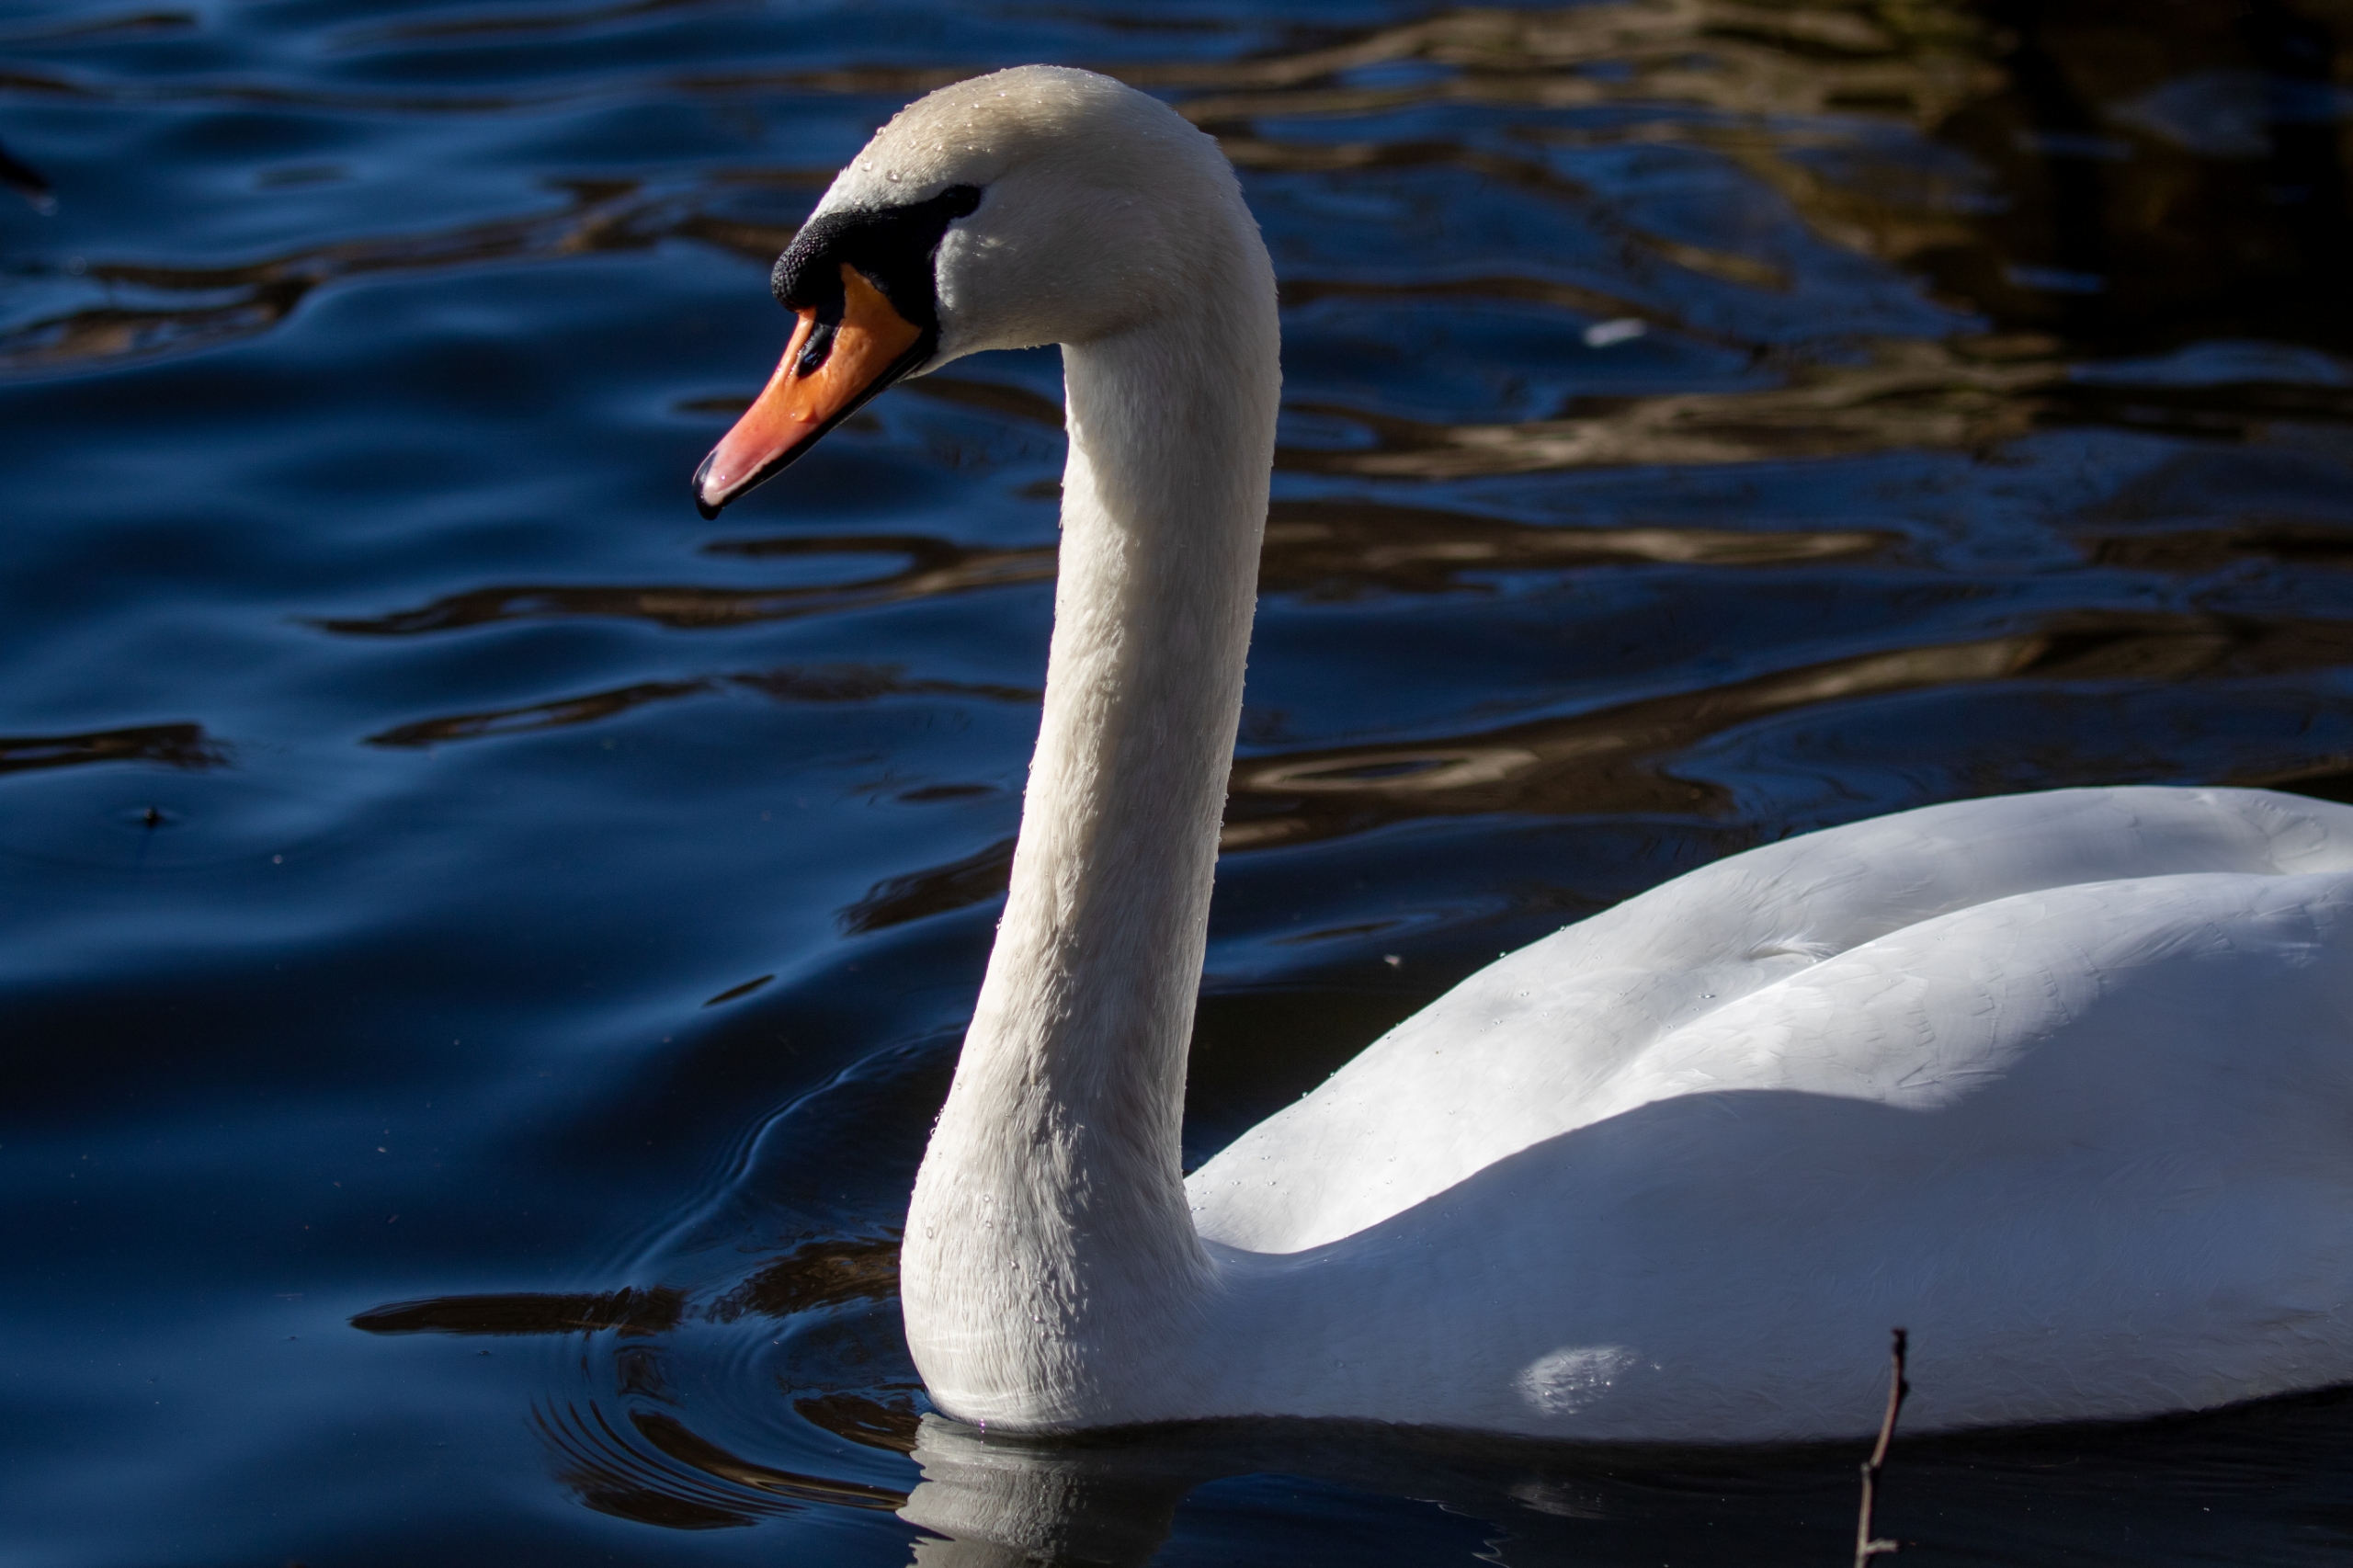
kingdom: Animalia
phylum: Chordata
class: Aves
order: Anseriformes
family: Anatidae
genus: Cygnus
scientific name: Cygnus olor
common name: Knopsvane
